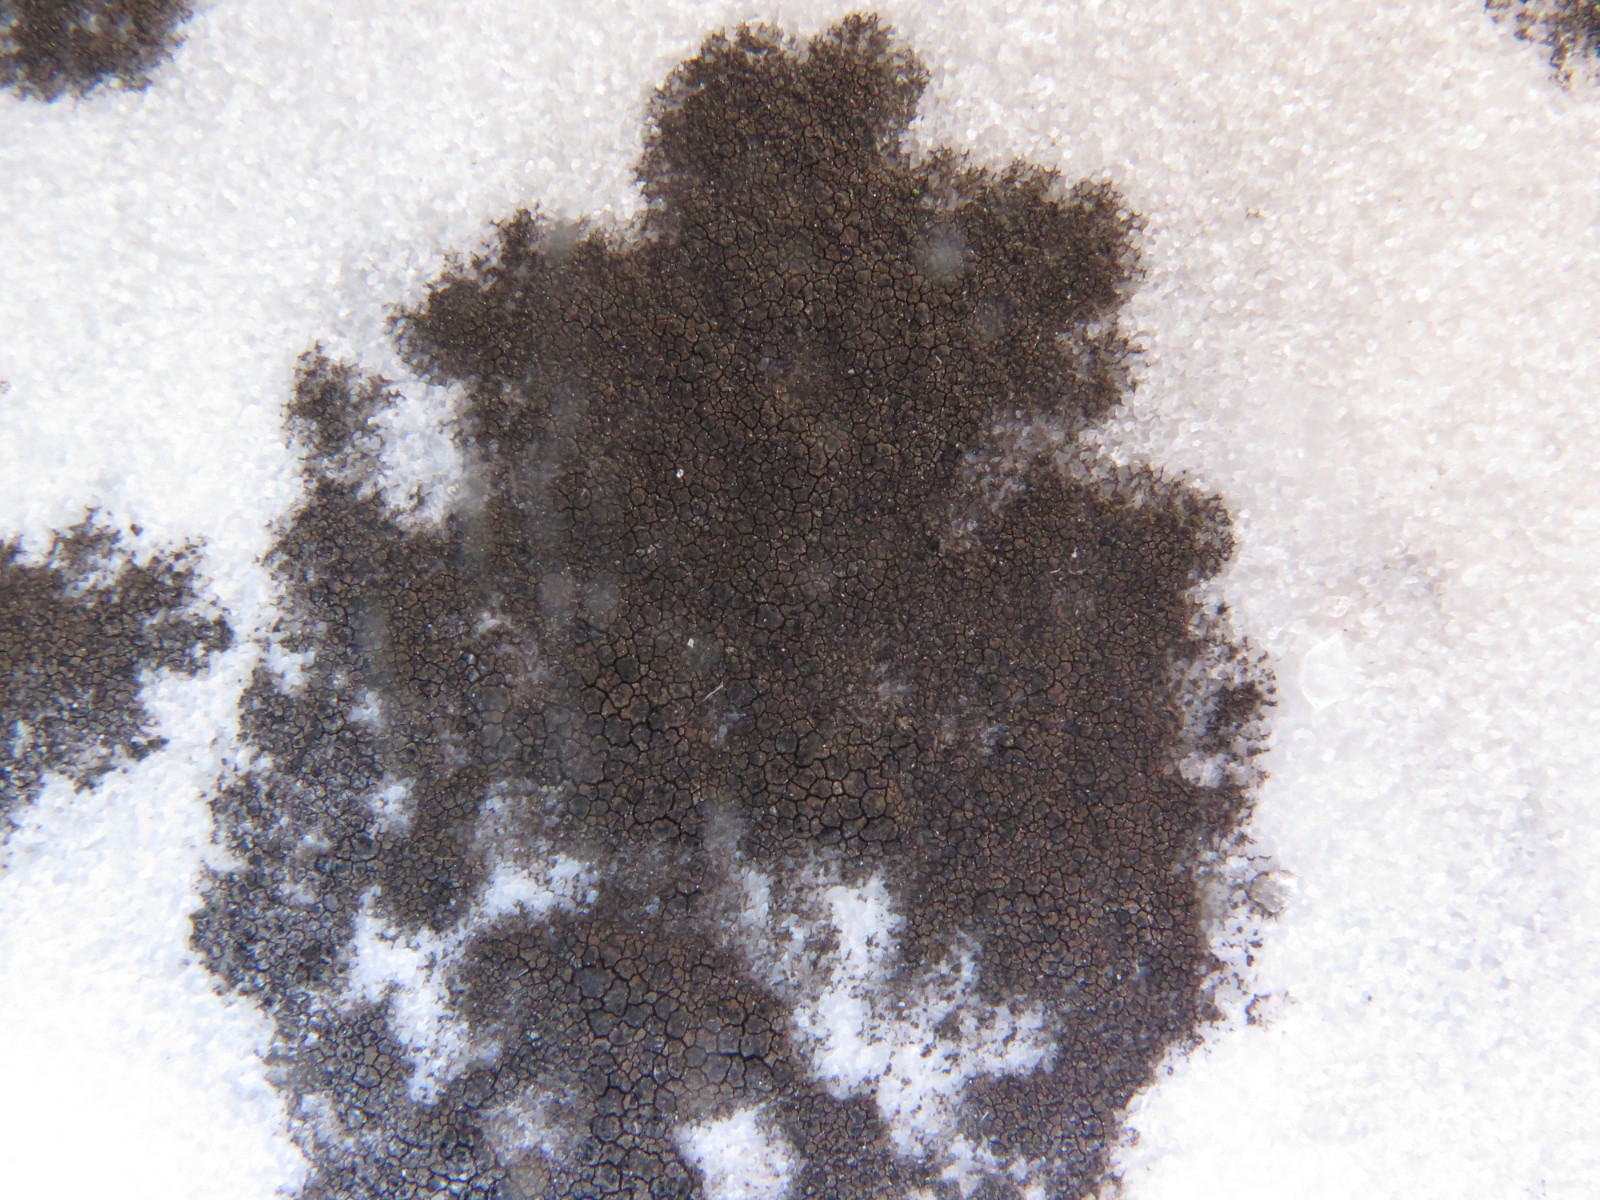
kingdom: Fungi
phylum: Ascomycota
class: Eurotiomycetes
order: Verrucariales
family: Verrucariaceae
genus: Verrucaria
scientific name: Verrucaria nigrescens
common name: sortbrun vortelav
